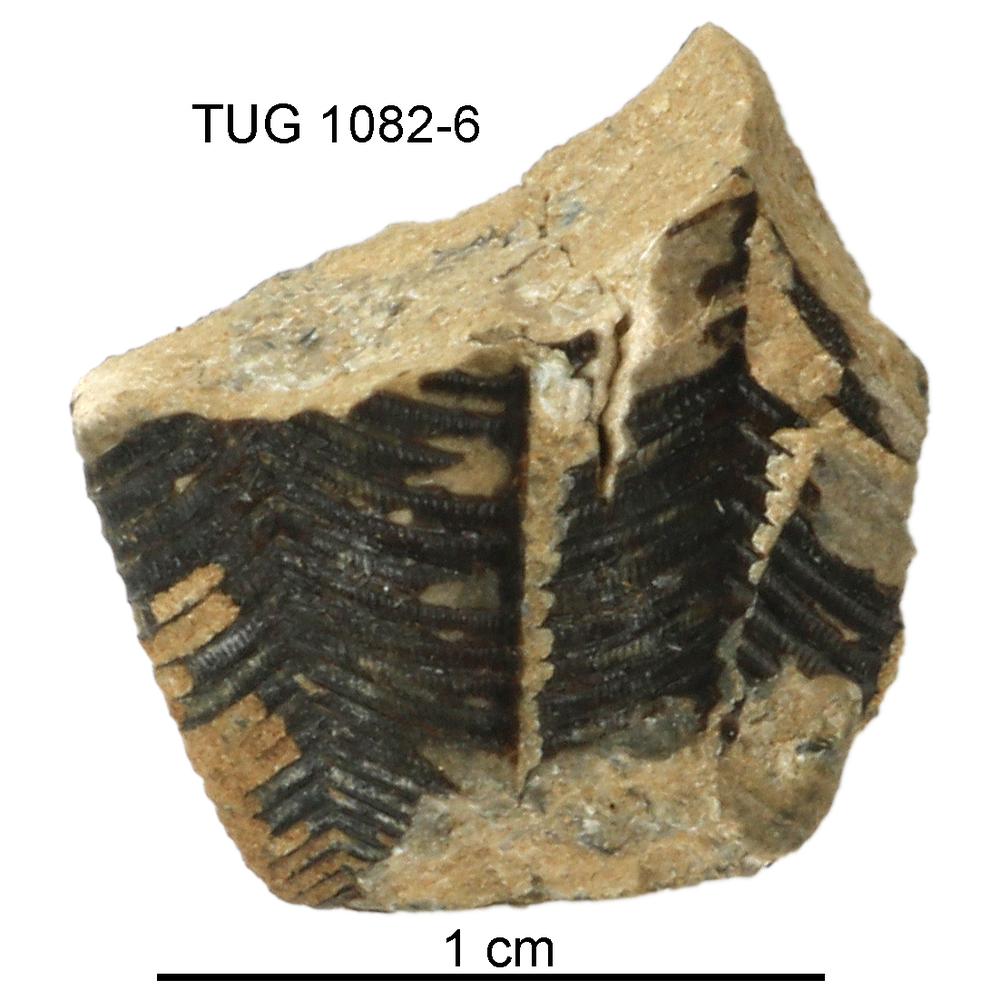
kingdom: Animalia
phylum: Cnidaria
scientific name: Cnidaria
